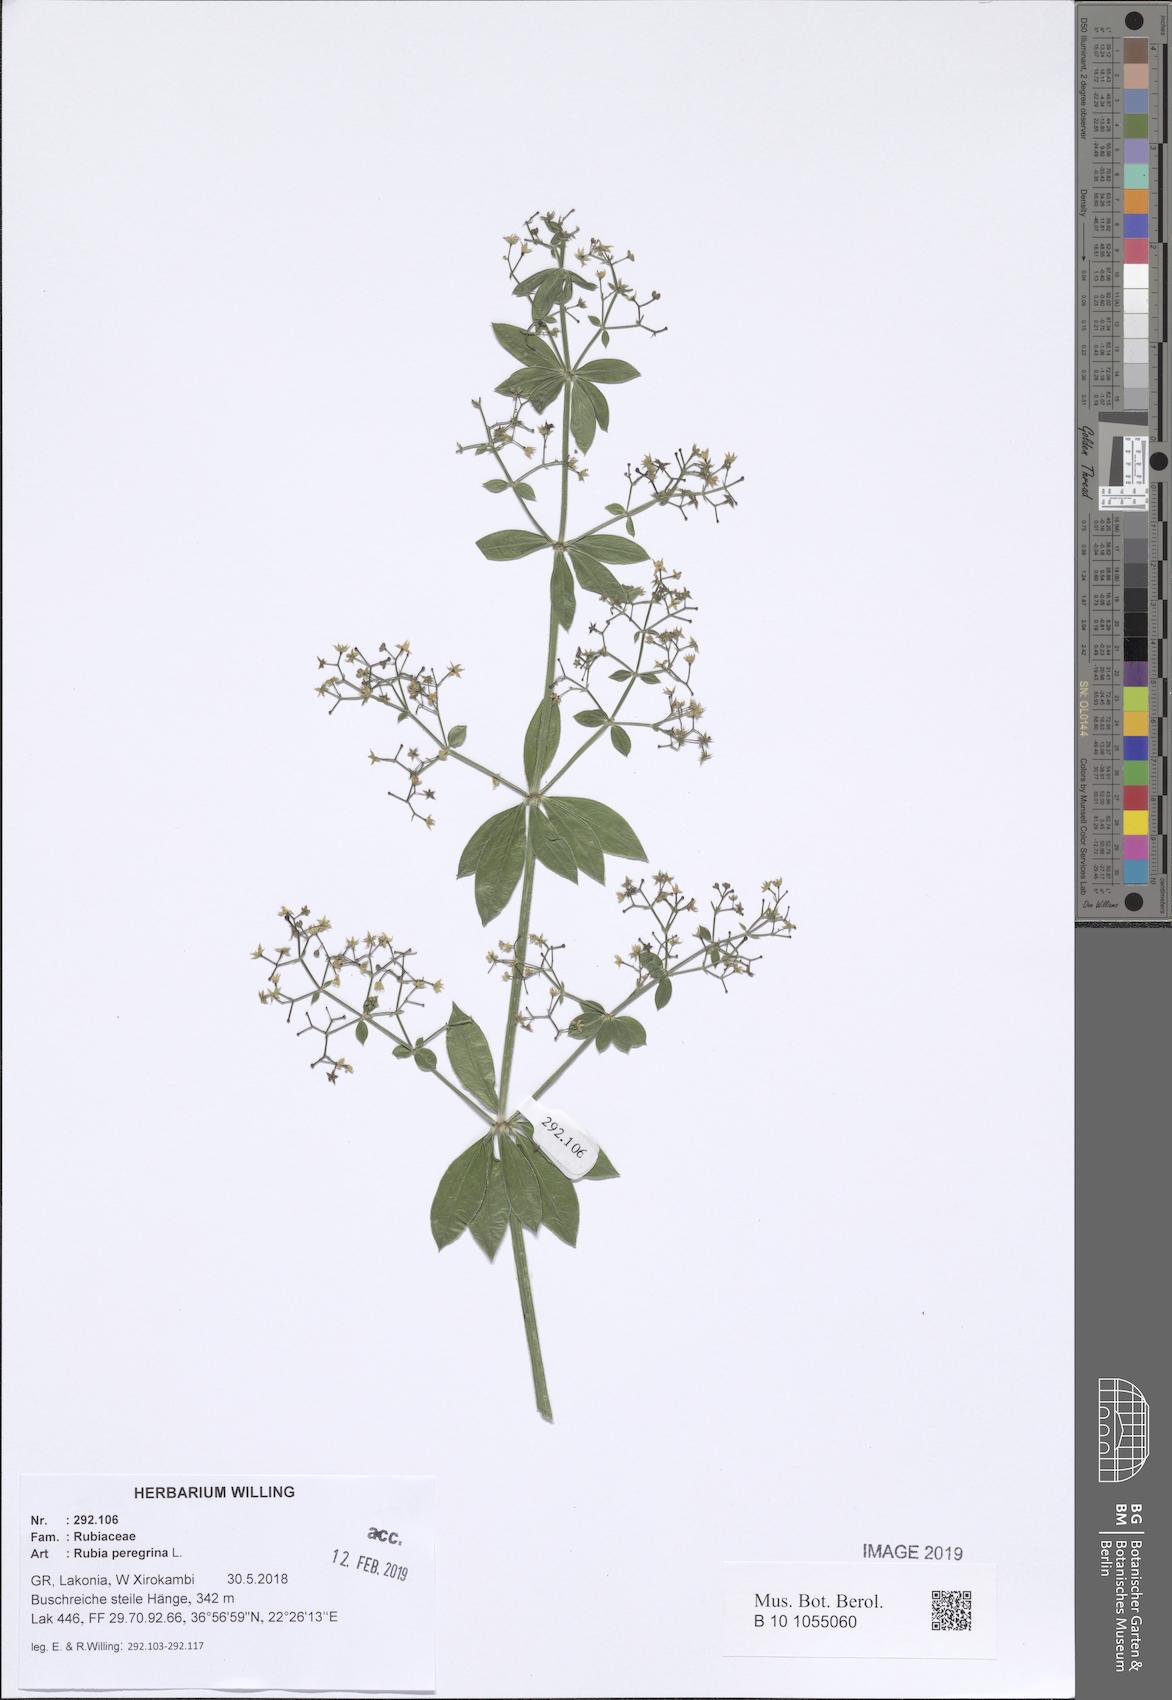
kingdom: Plantae
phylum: Tracheophyta
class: Magnoliopsida
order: Gentianales
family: Rubiaceae
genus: Rubia
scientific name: Rubia peregrina
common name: Wild madder
